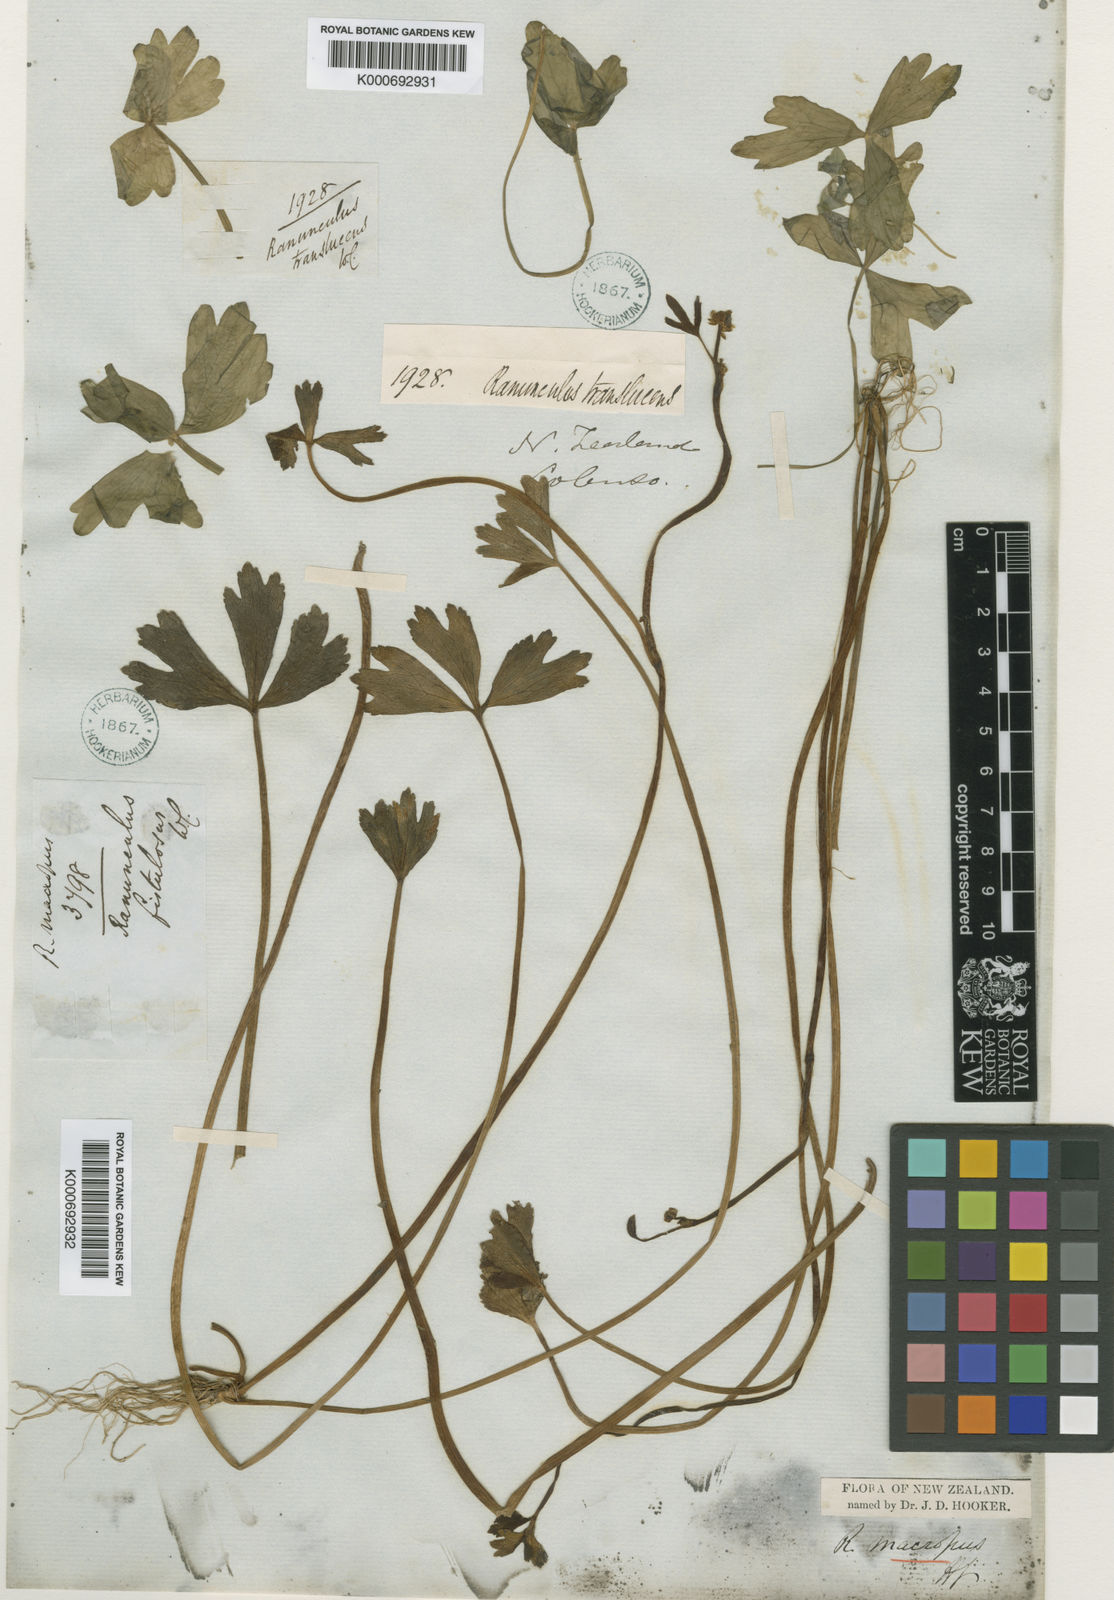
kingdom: Plantae
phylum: Tracheophyta
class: Magnoliopsida
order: Ranunculales
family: Ranunculaceae
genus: Ranunculus
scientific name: Ranunculus macropus
